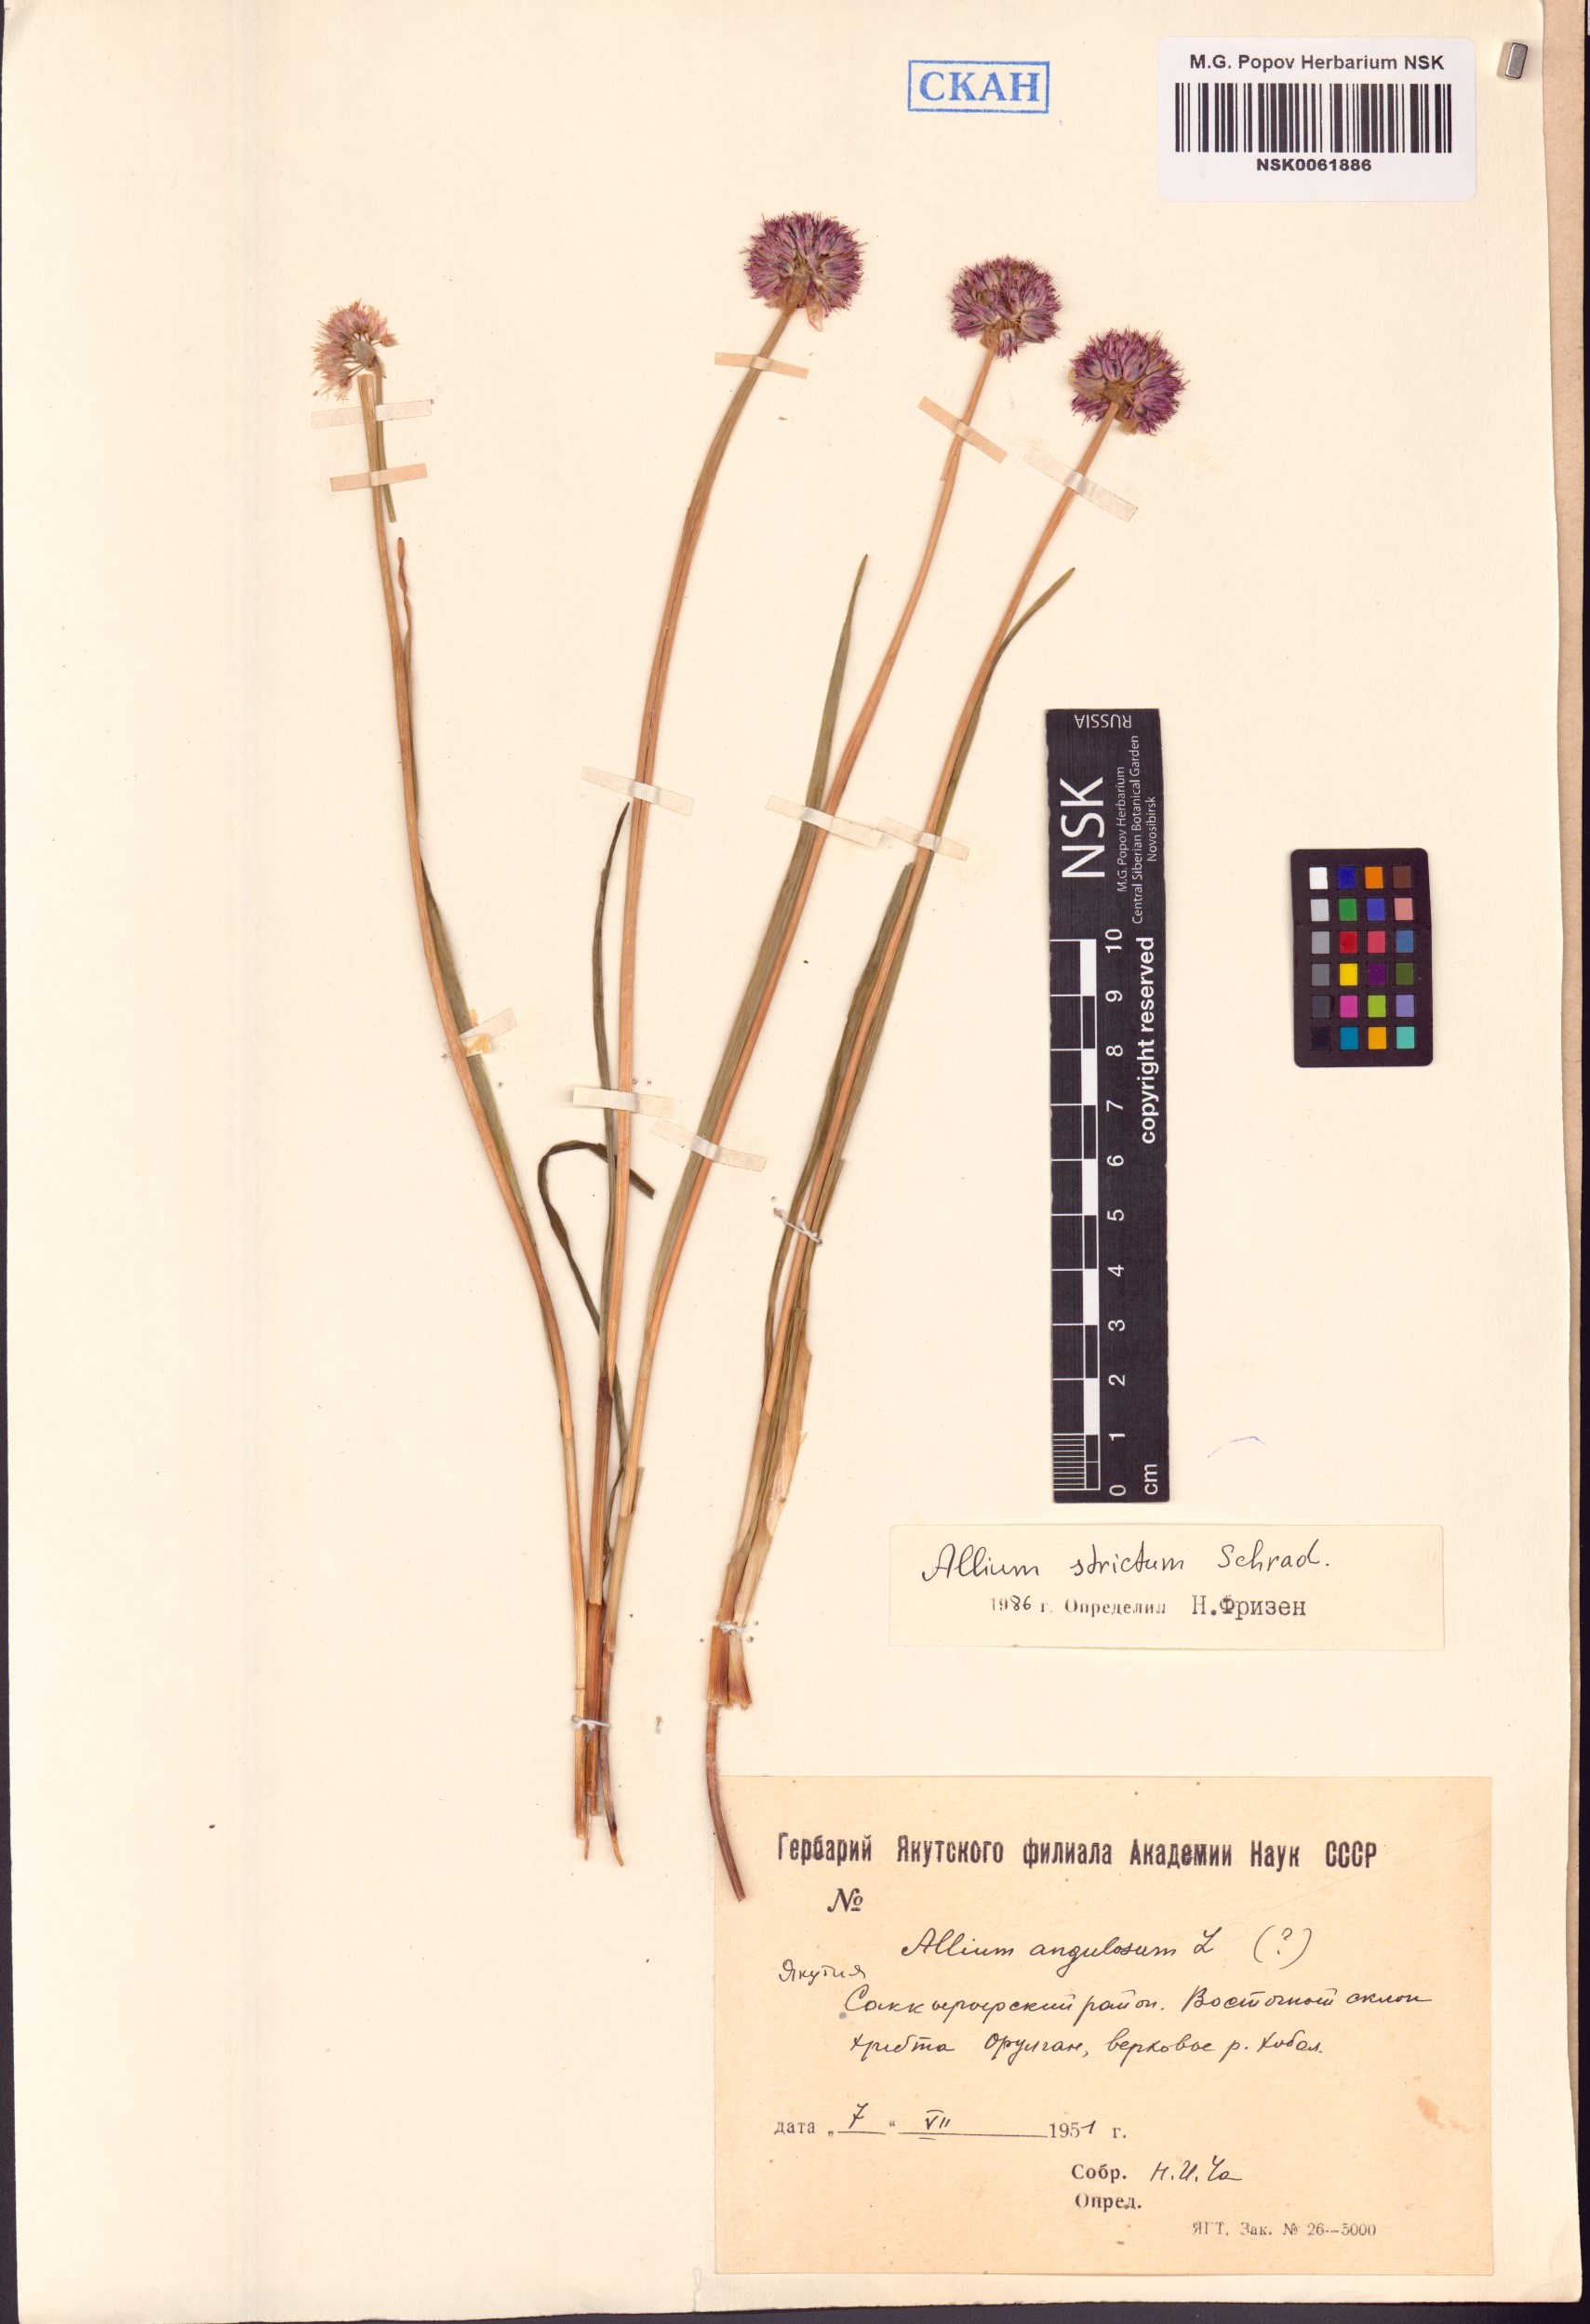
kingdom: Plantae
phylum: Tracheophyta
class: Liliopsida
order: Asparagales
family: Amaryllidaceae
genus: Allium
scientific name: Allium strictum
